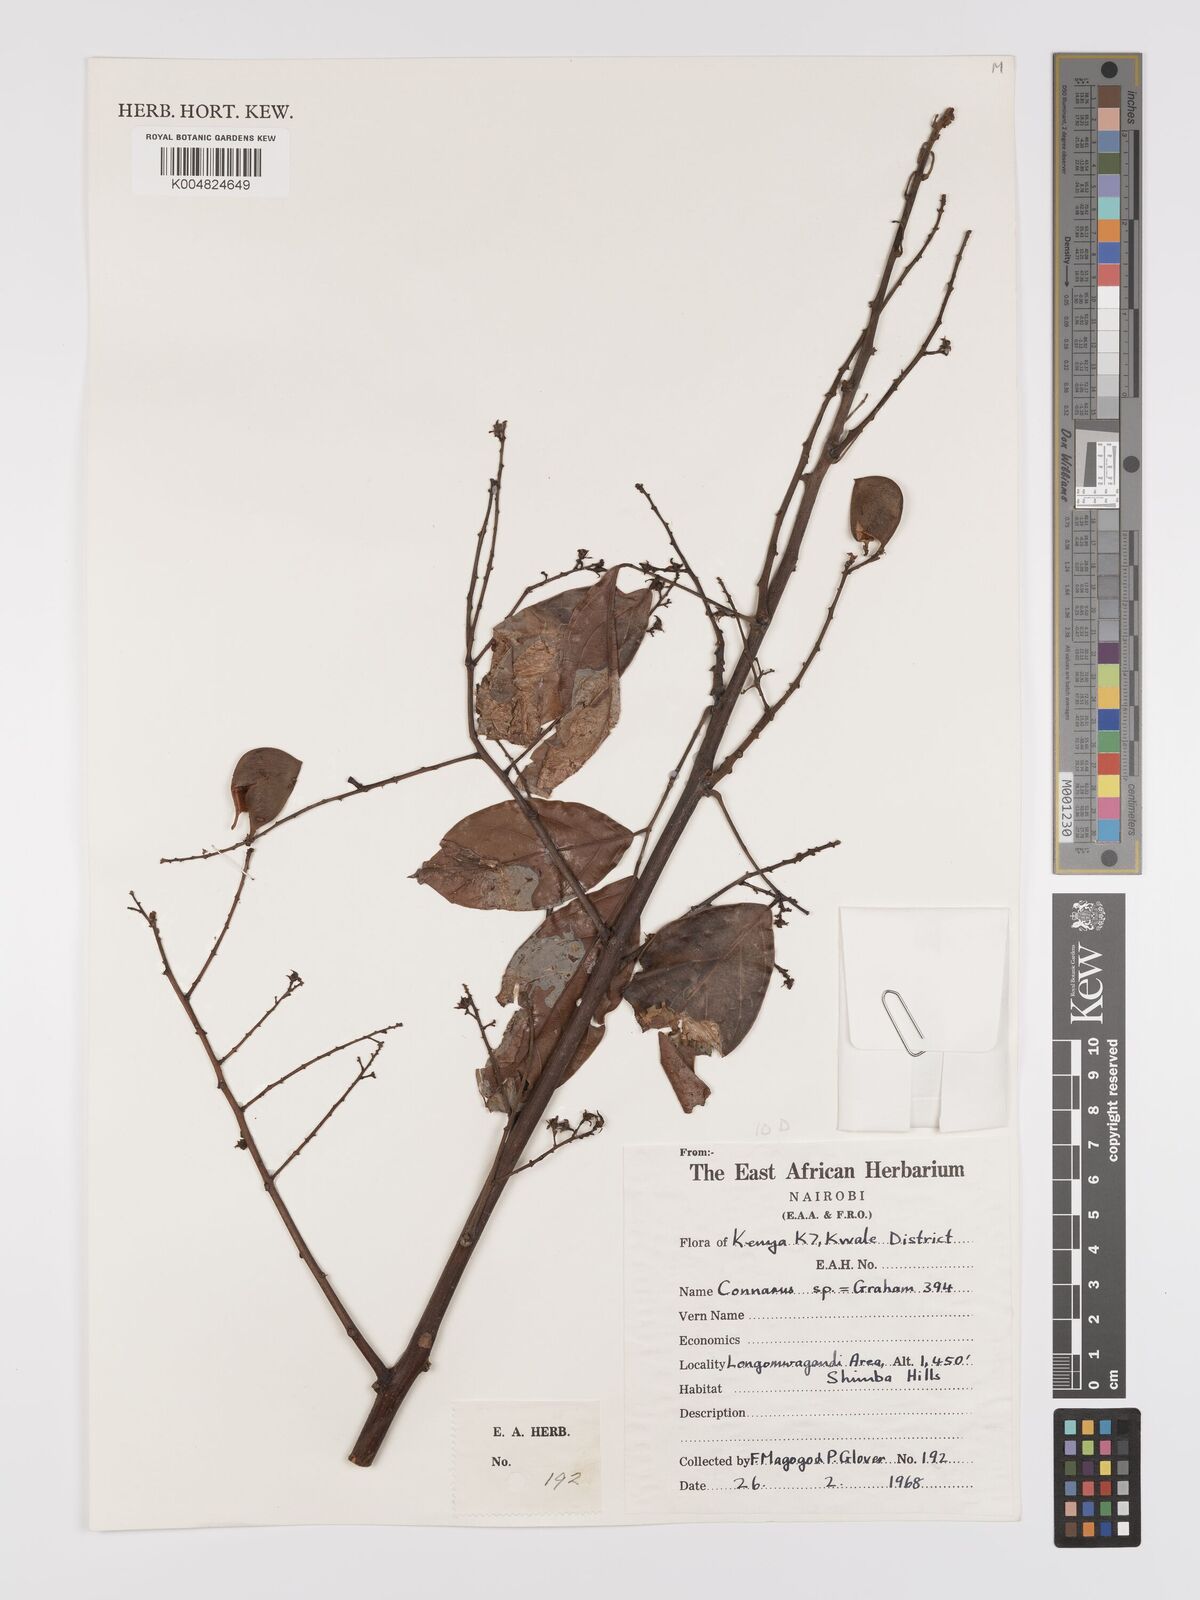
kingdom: Plantae
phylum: Tracheophyta
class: Magnoliopsida
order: Oxalidales
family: Connaraceae
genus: Connarus
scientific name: Connarus
